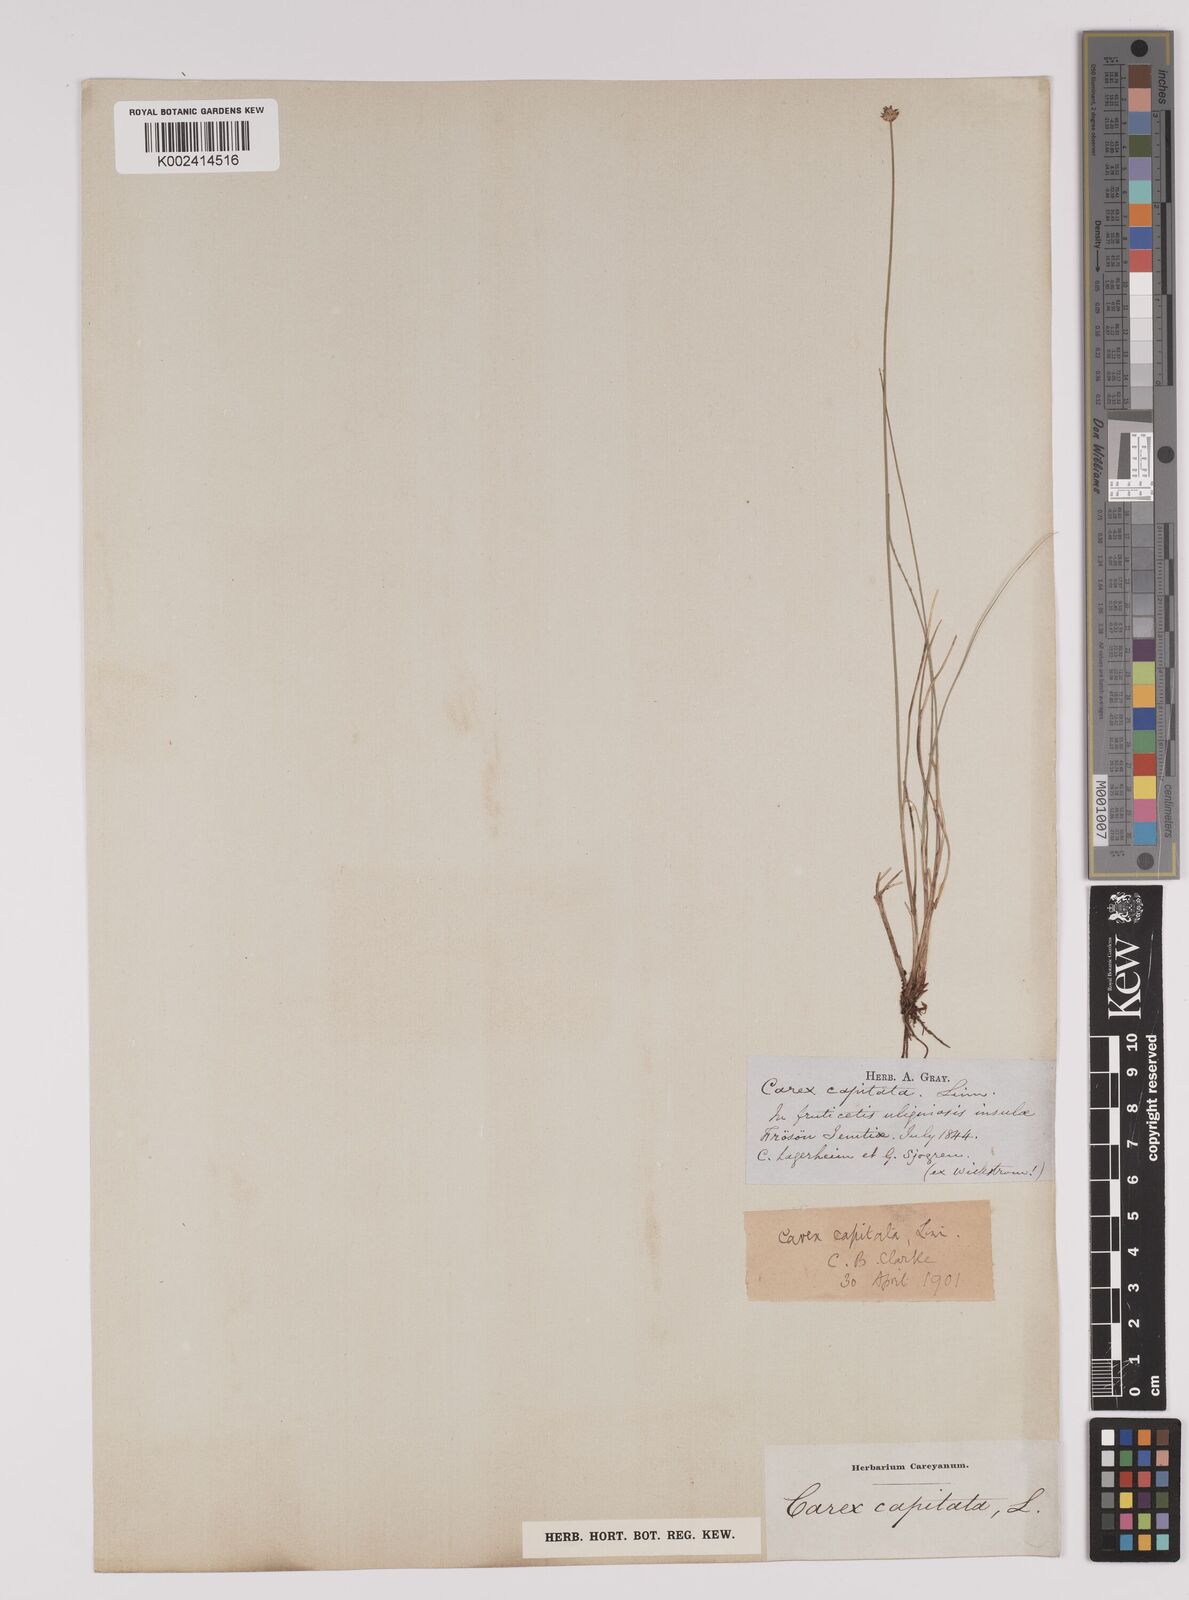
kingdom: Plantae
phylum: Tracheophyta
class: Liliopsida
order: Poales
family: Cyperaceae
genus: Carex
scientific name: Carex capitata
